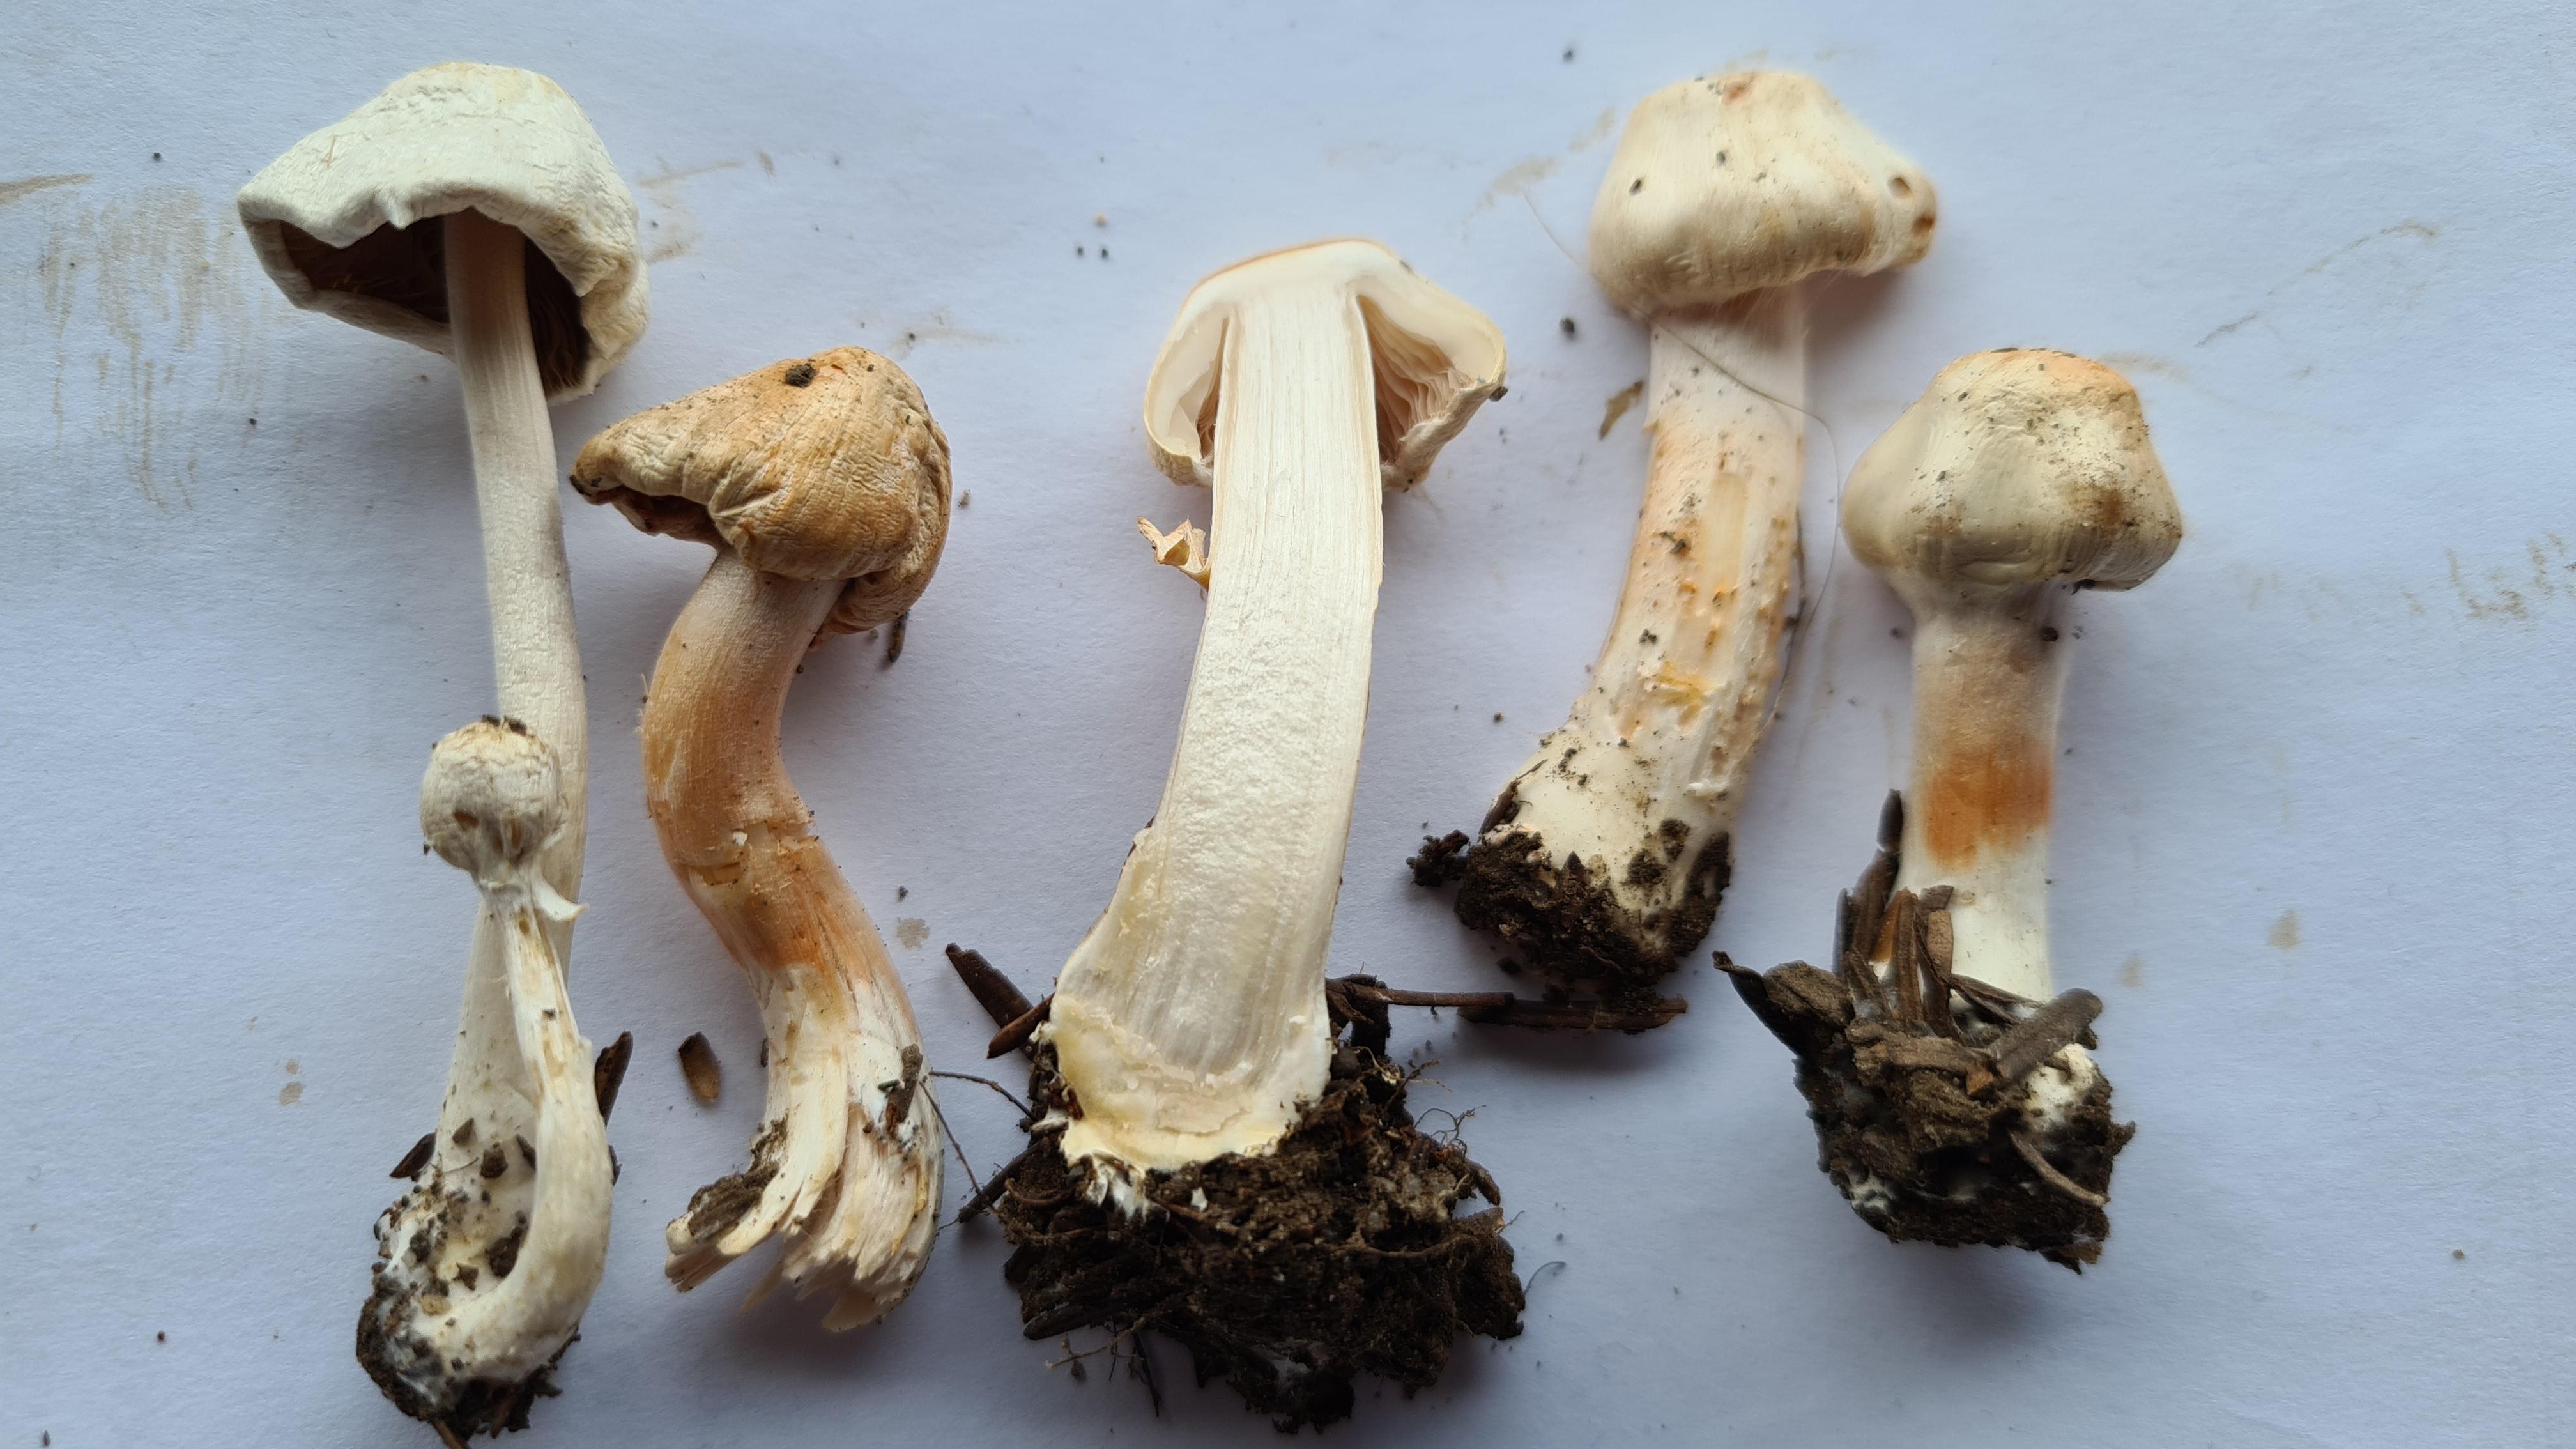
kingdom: Fungi
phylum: Basidiomycota
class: Agaricomycetes
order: Agaricales
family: Inocybaceae
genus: Inocybe
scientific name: Inocybe
